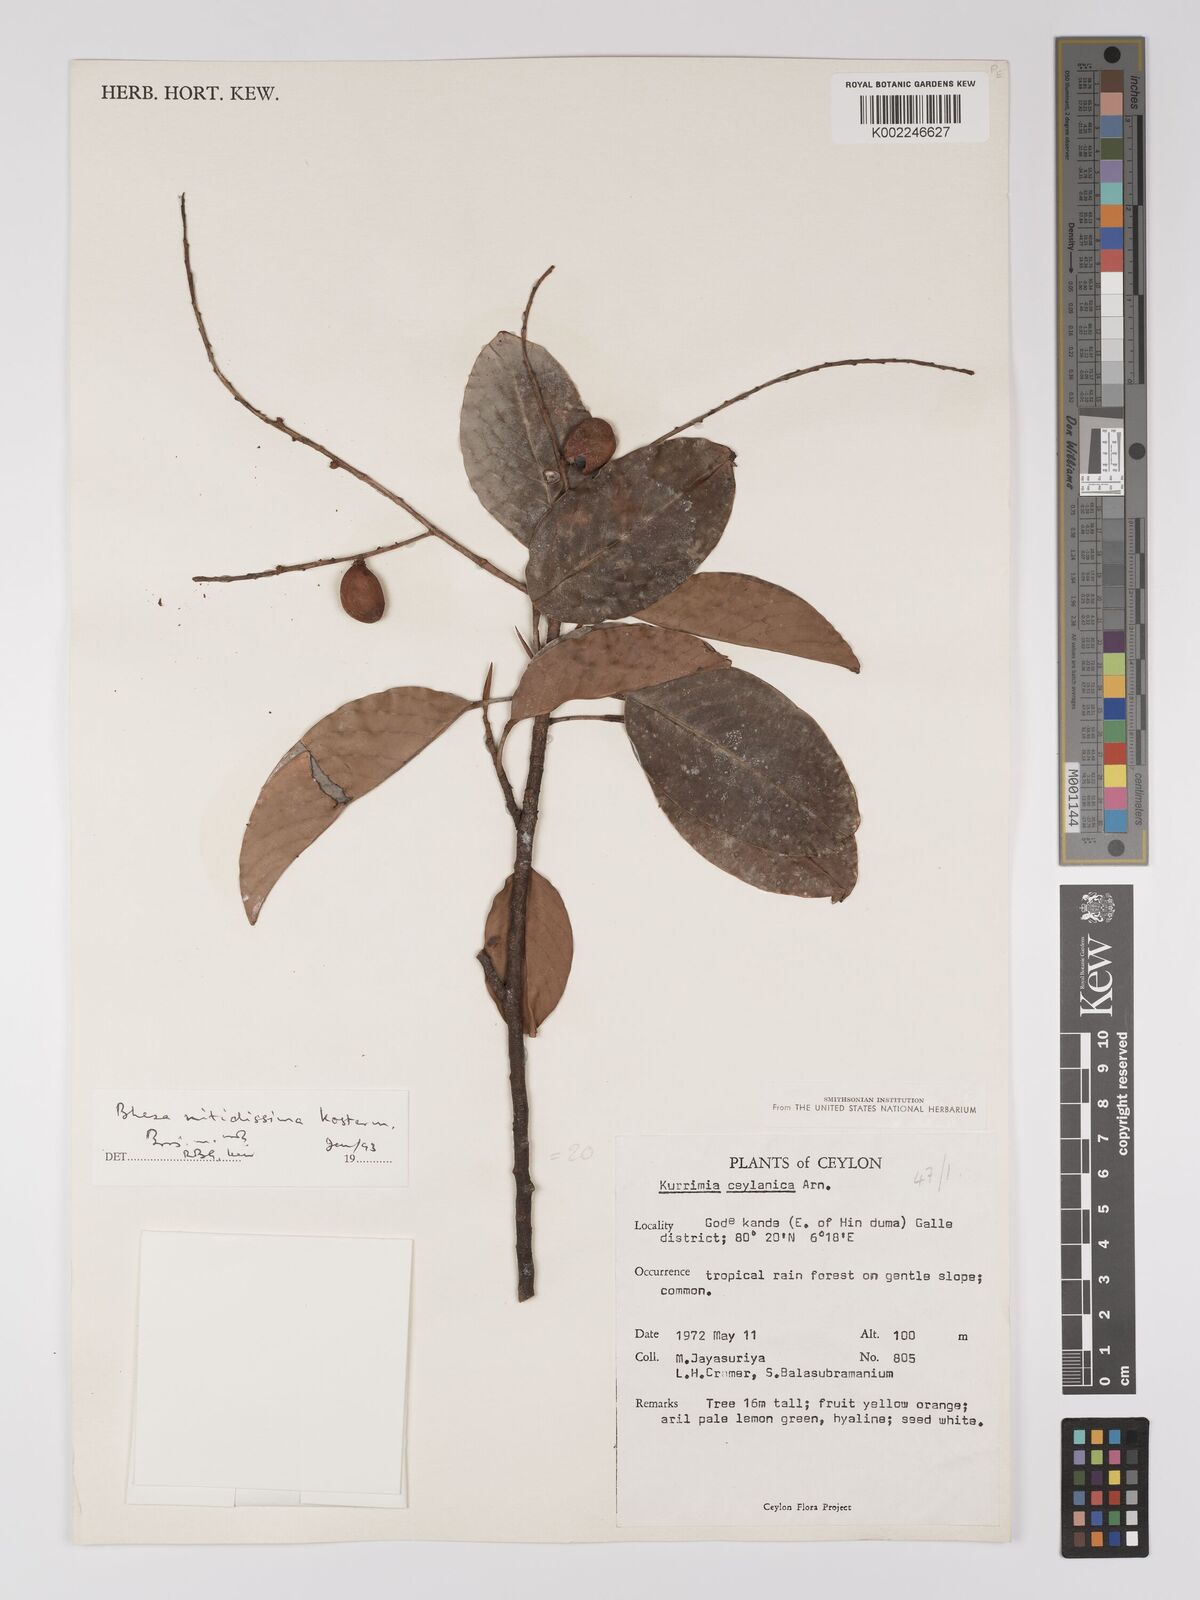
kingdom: Plantae
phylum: Tracheophyta
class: Magnoliopsida
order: Malpighiales
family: Centroplacaceae
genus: Bhesa
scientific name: Bhesa nitidissima
